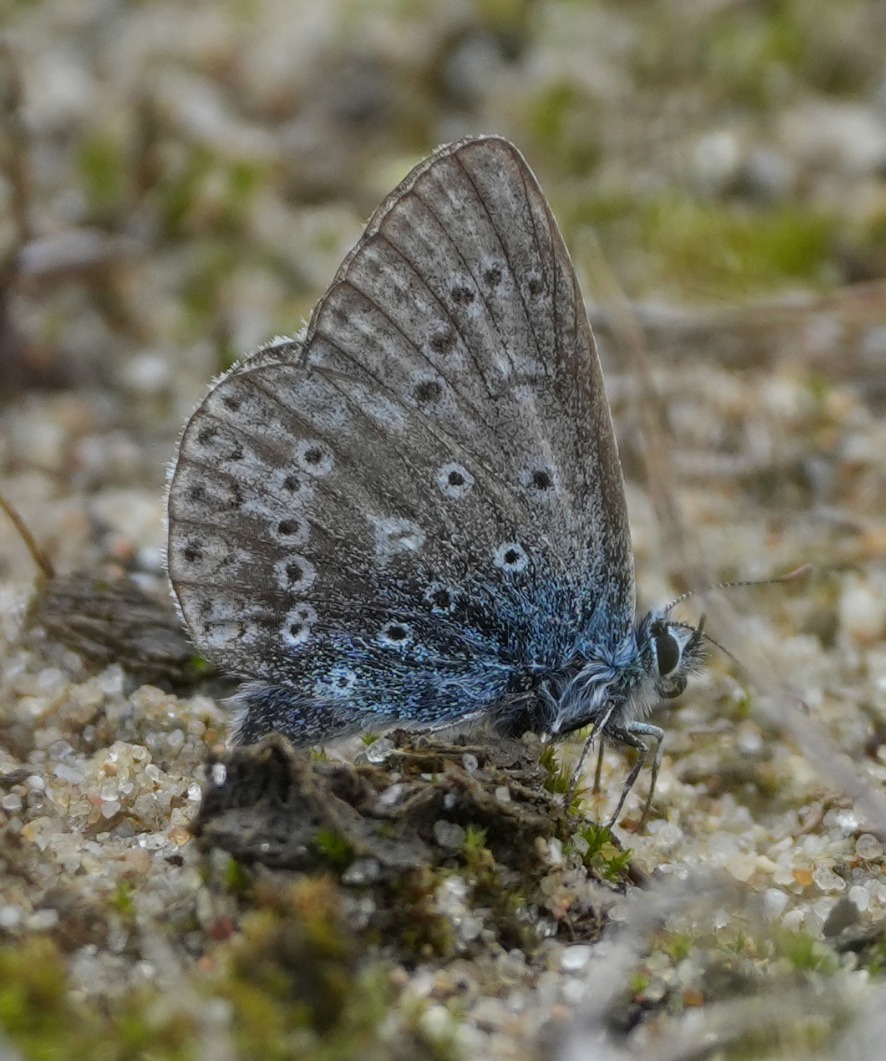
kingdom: Animalia
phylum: Arthropoda
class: Insecta
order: Lepidoptera
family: Lycaenidae
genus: Polyommatus
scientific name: Polyommatus icarus
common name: Almindelig blåfugl
